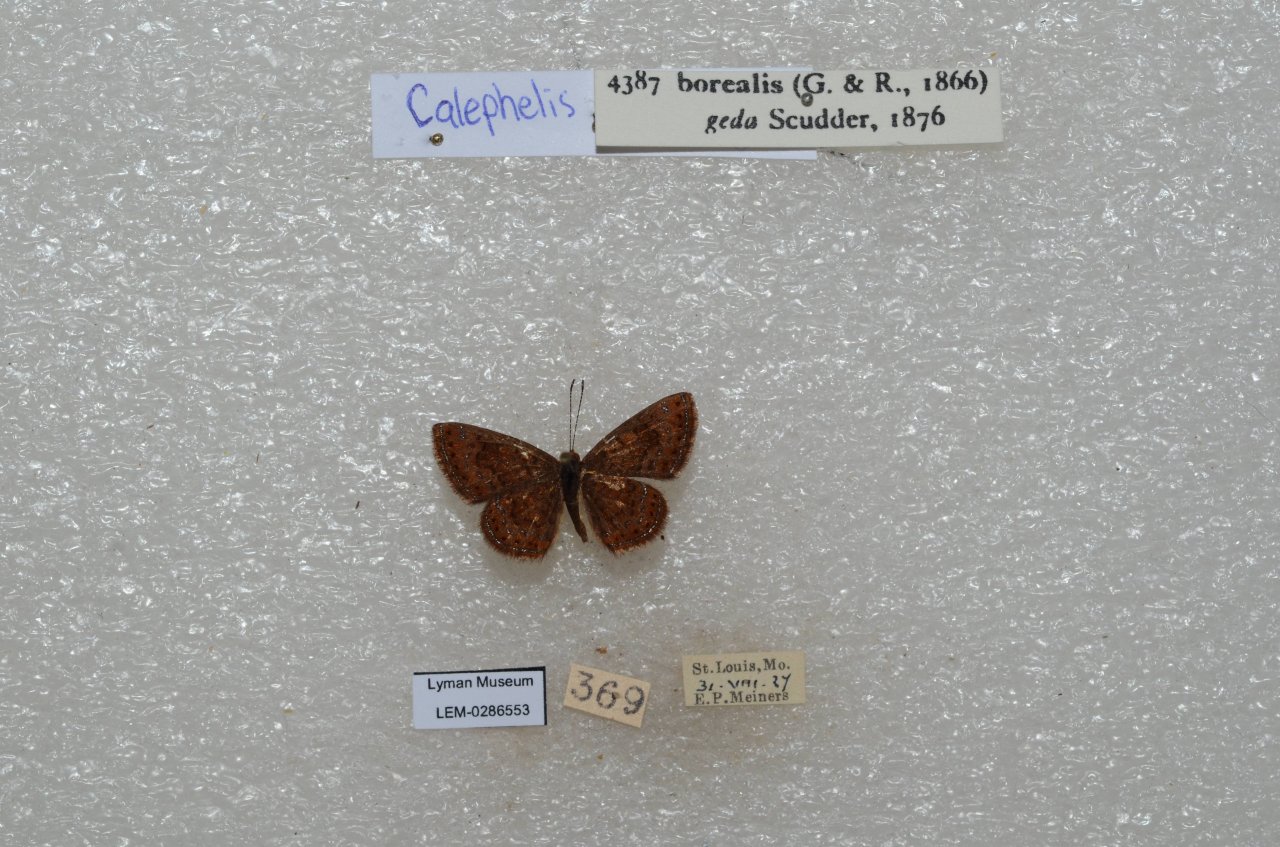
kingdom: Animalia
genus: Calephelis
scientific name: Calephelis borealis
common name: Northern Metalmark
